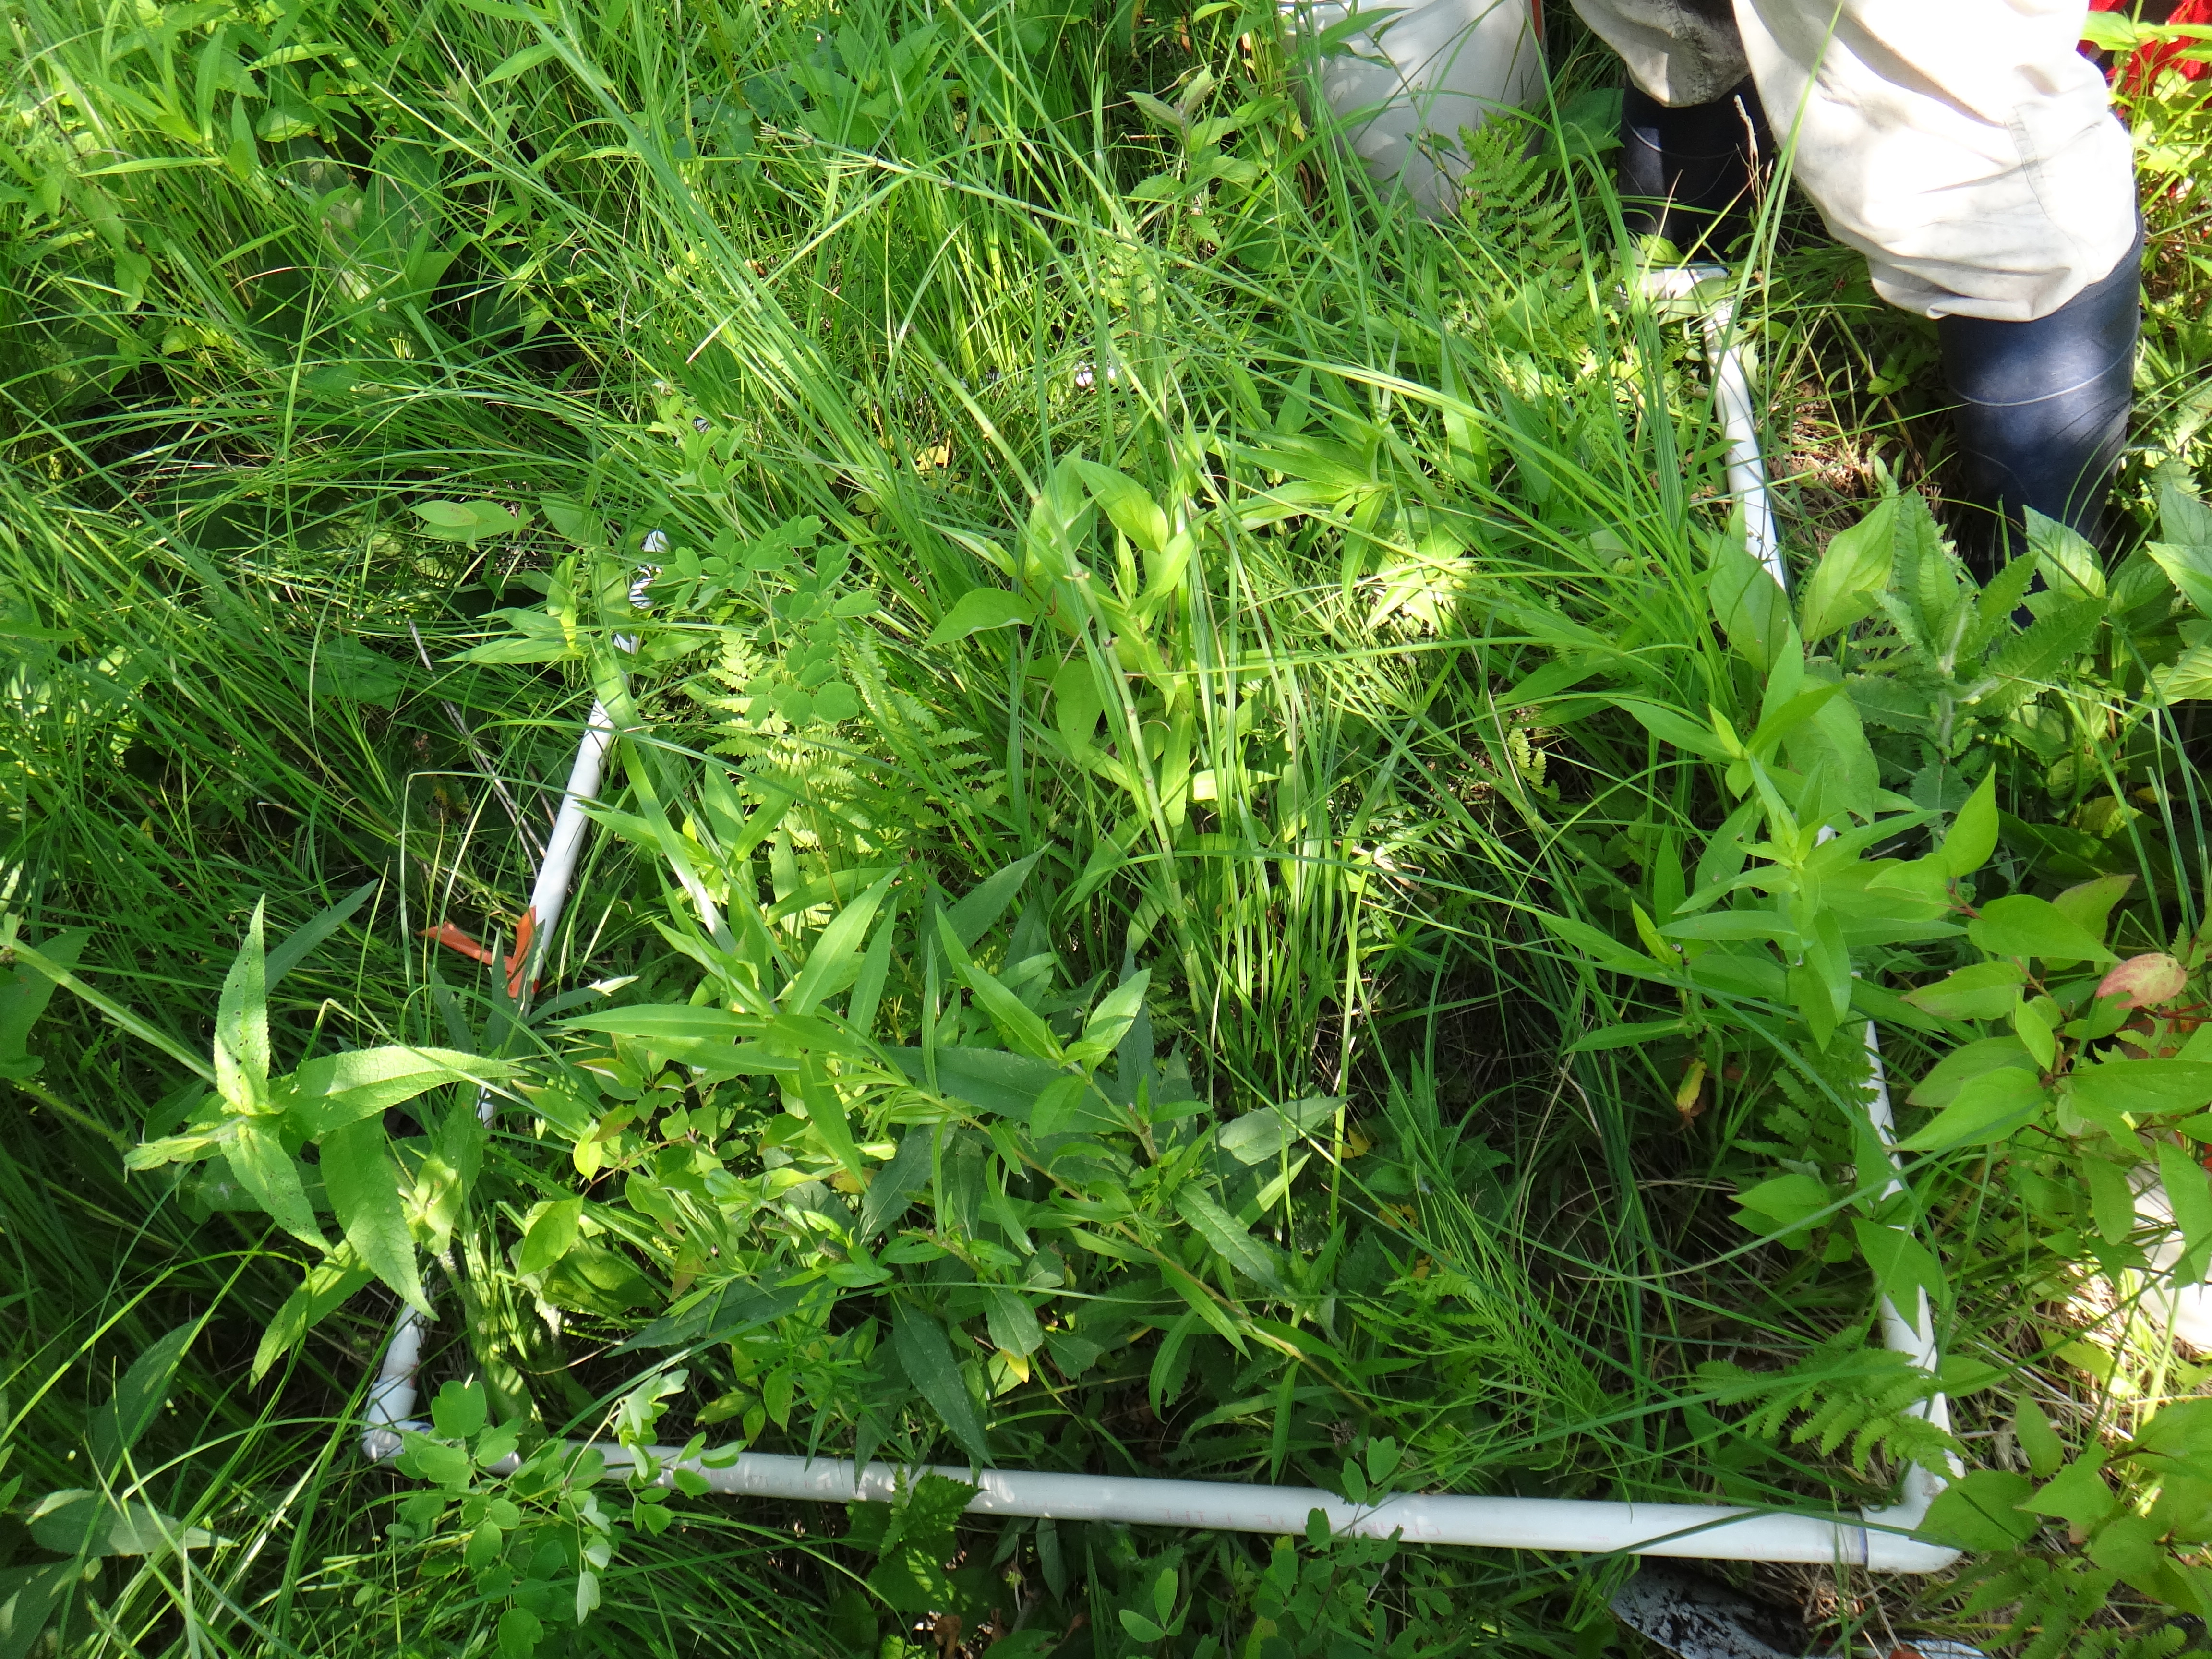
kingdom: Plantae
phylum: Tracheophyta
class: Polypodiopsida
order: Polypodiales
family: Thelypteridaceae
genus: Thelypteris
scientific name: Thelypteris palustris
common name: Marsh fern
